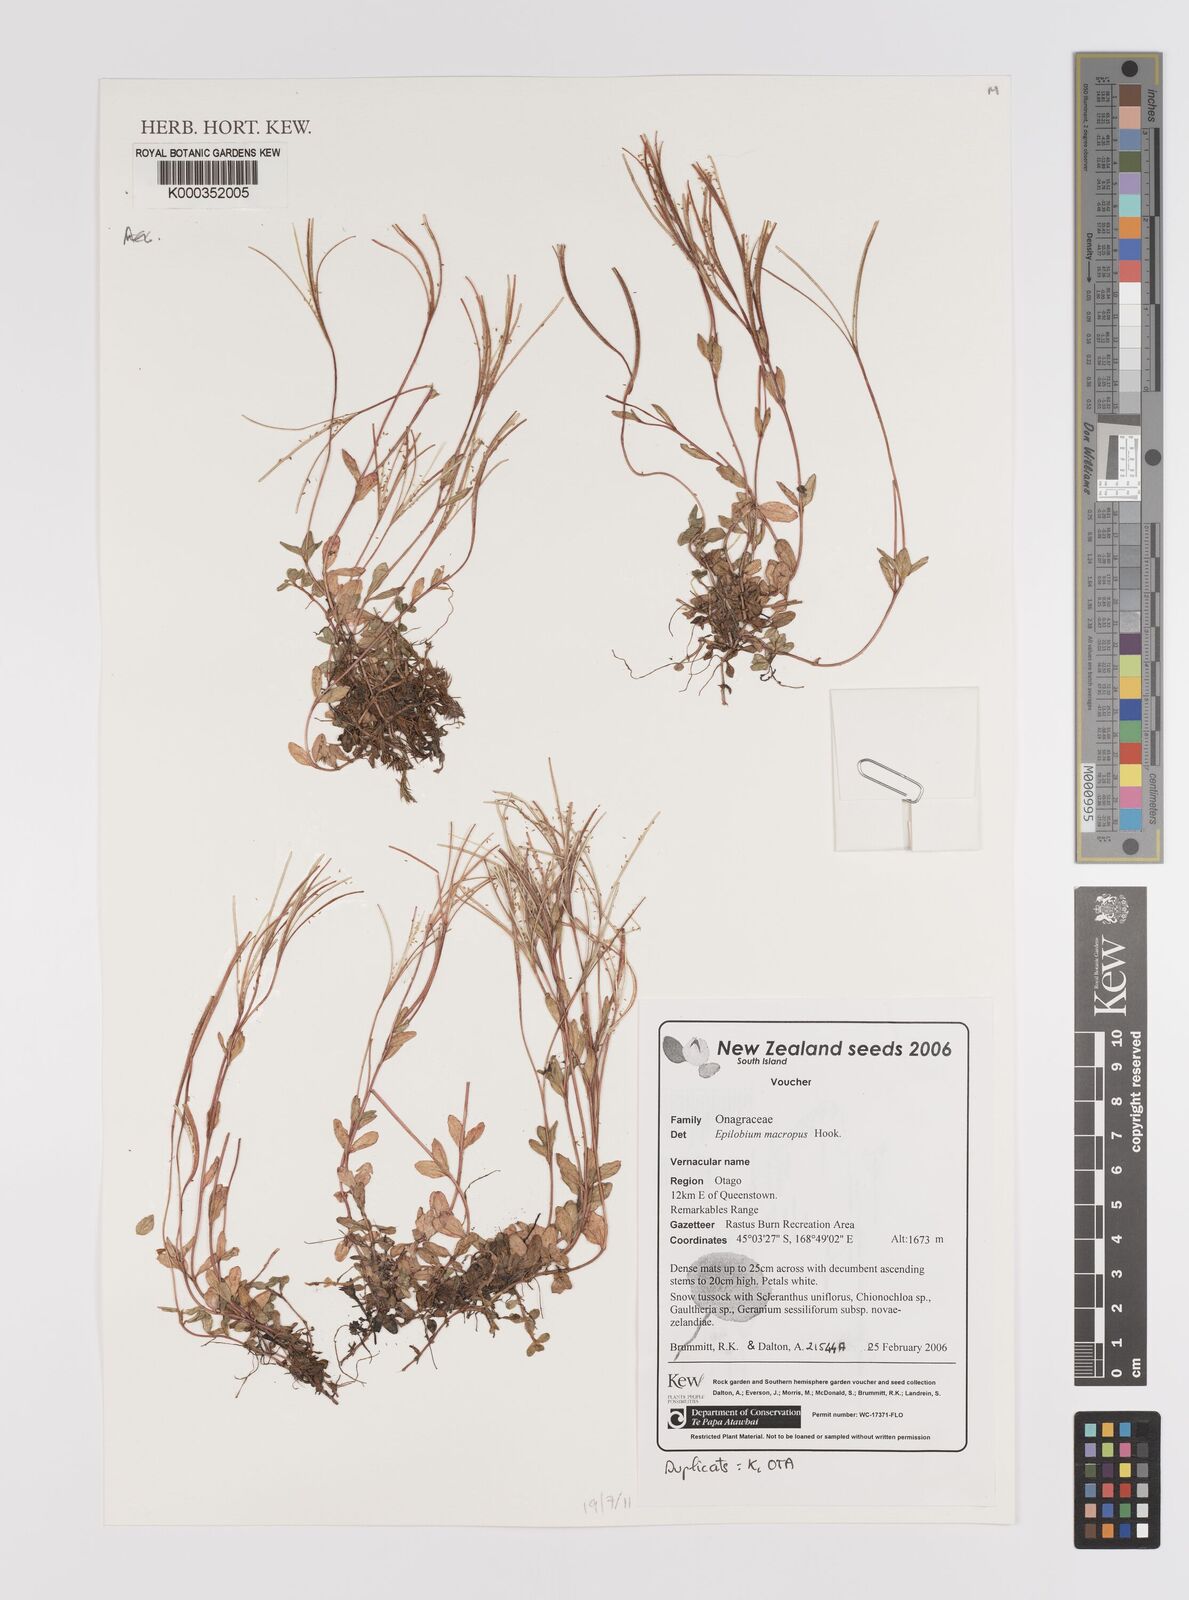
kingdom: Plantae
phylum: Tracheophyta
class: Magnoliopsida
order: Myrtales
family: Onagraceae
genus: Epilobium
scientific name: Epilobium macropus
